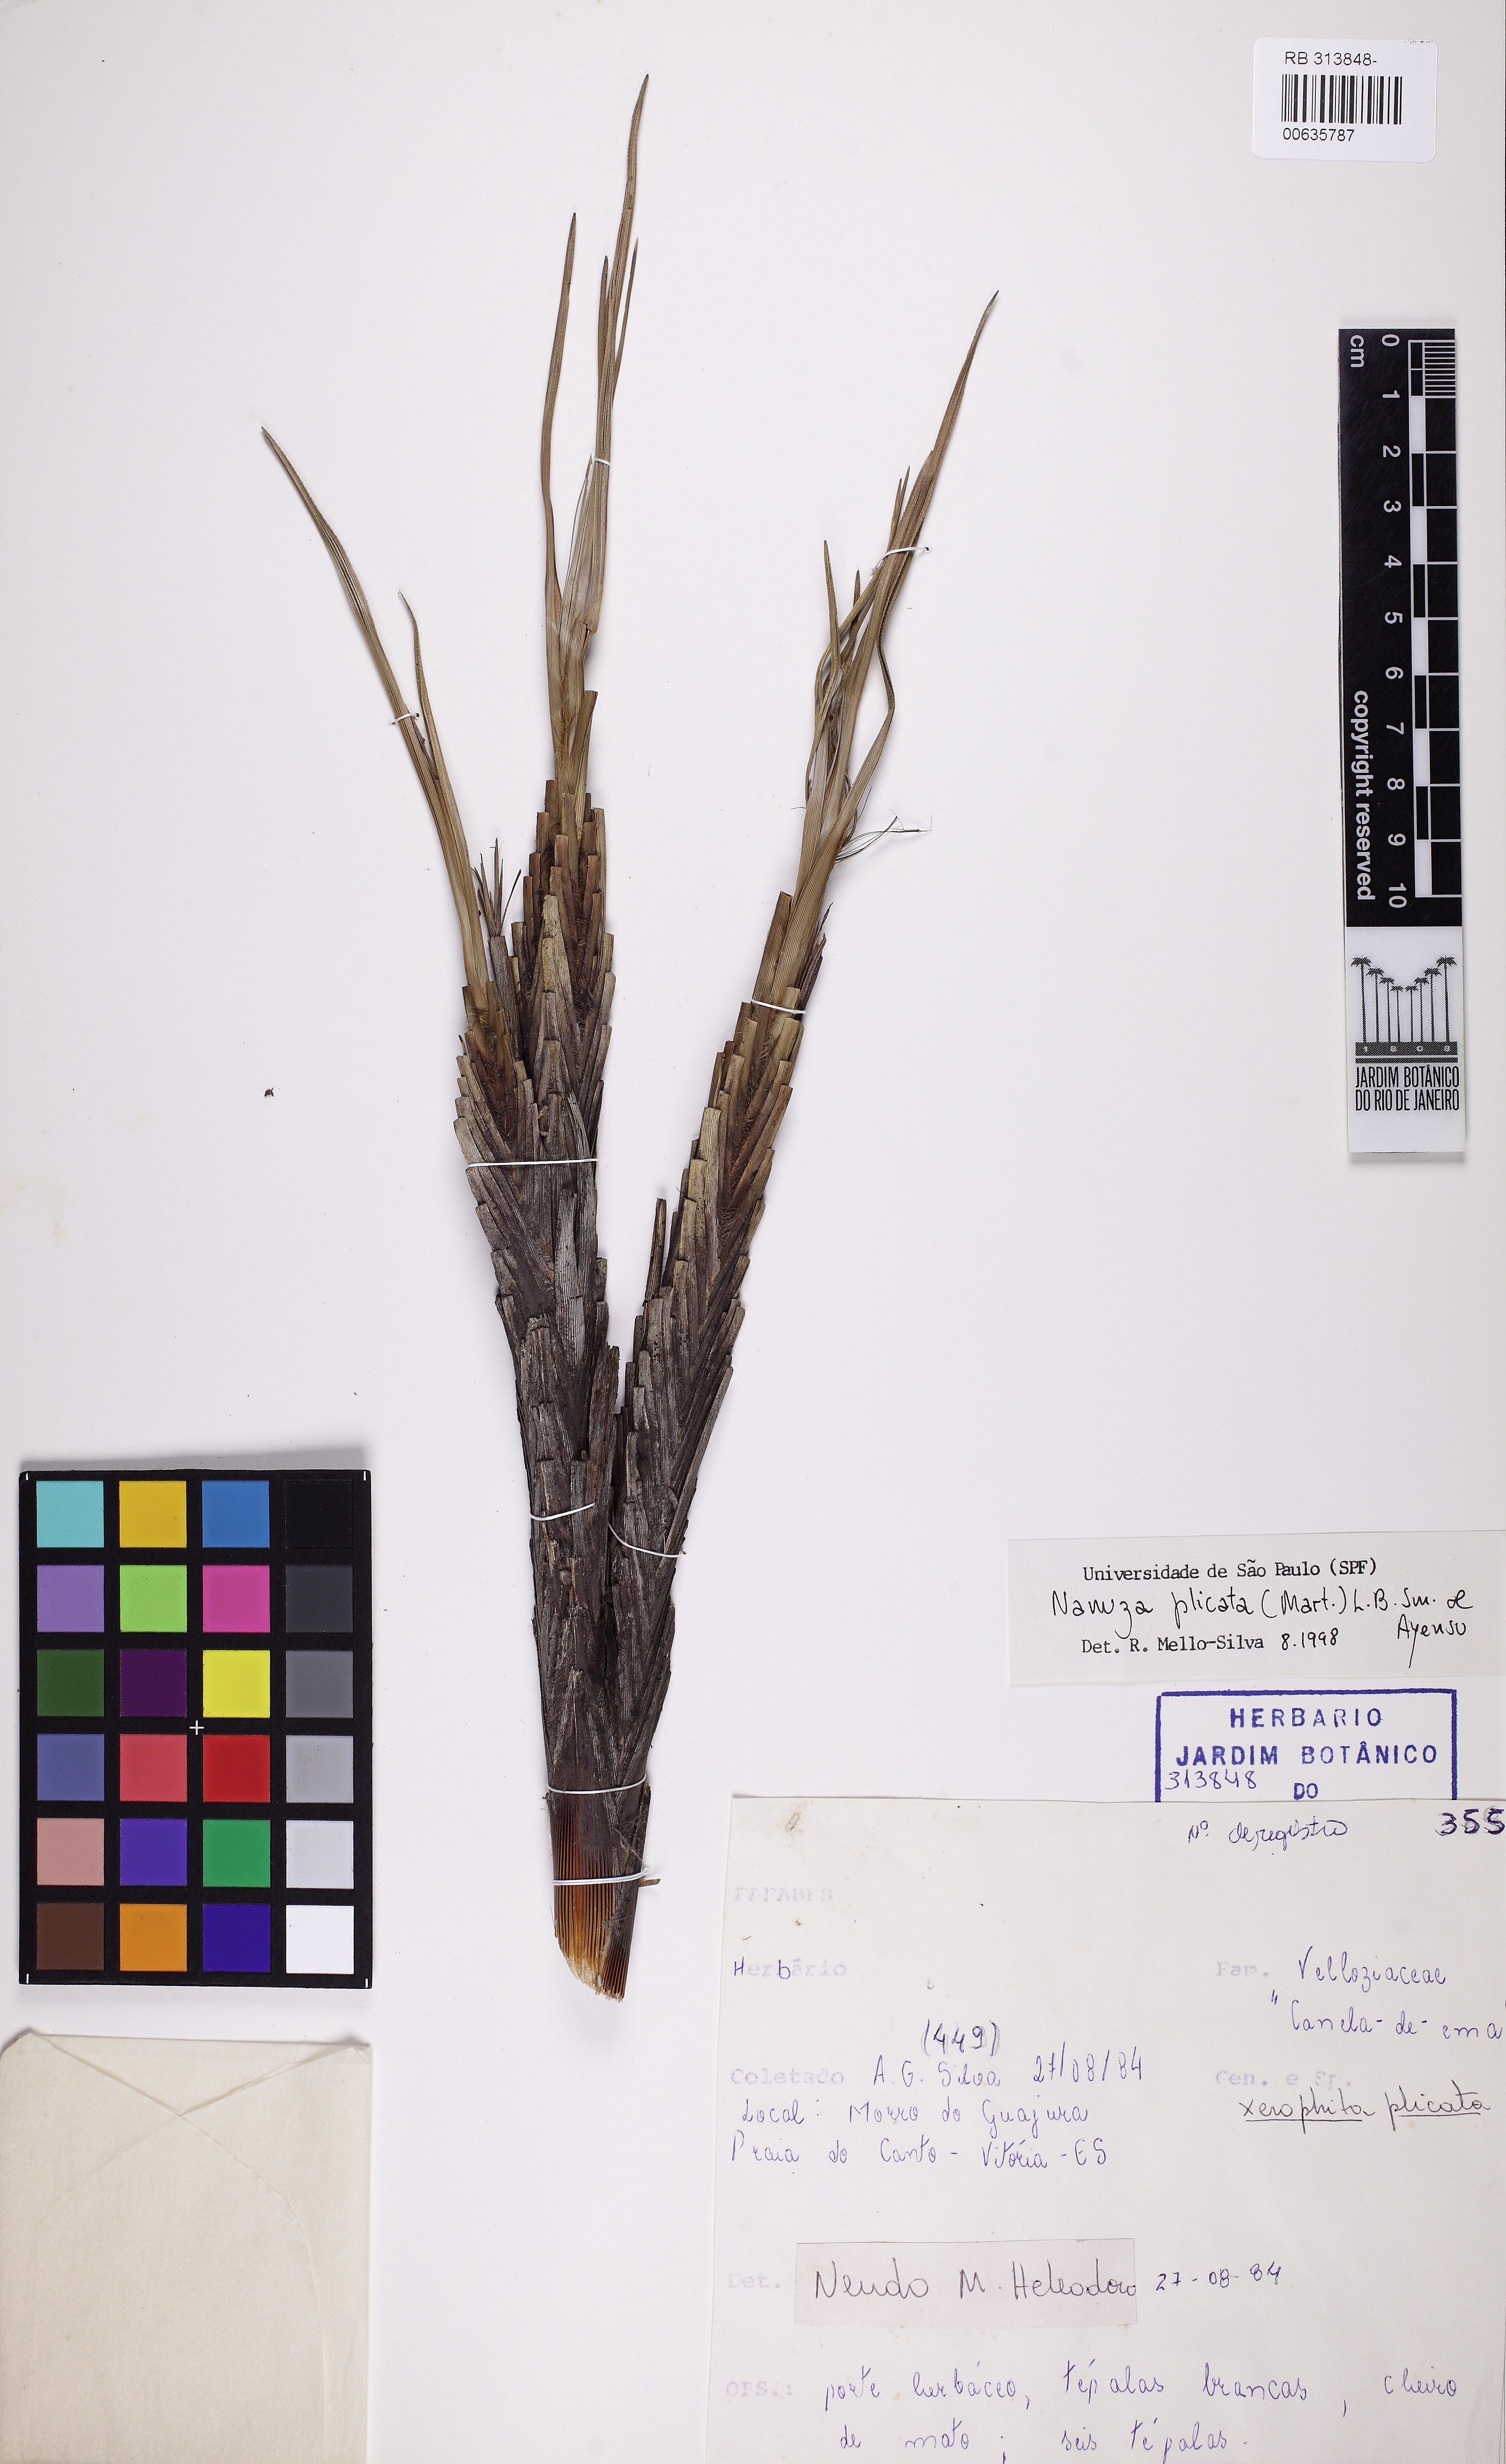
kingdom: Plantae
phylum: Tracheophyta
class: Liliopsida
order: Pandanales
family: Velloziaceae
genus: Nanuza
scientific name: Nanuza plicata
